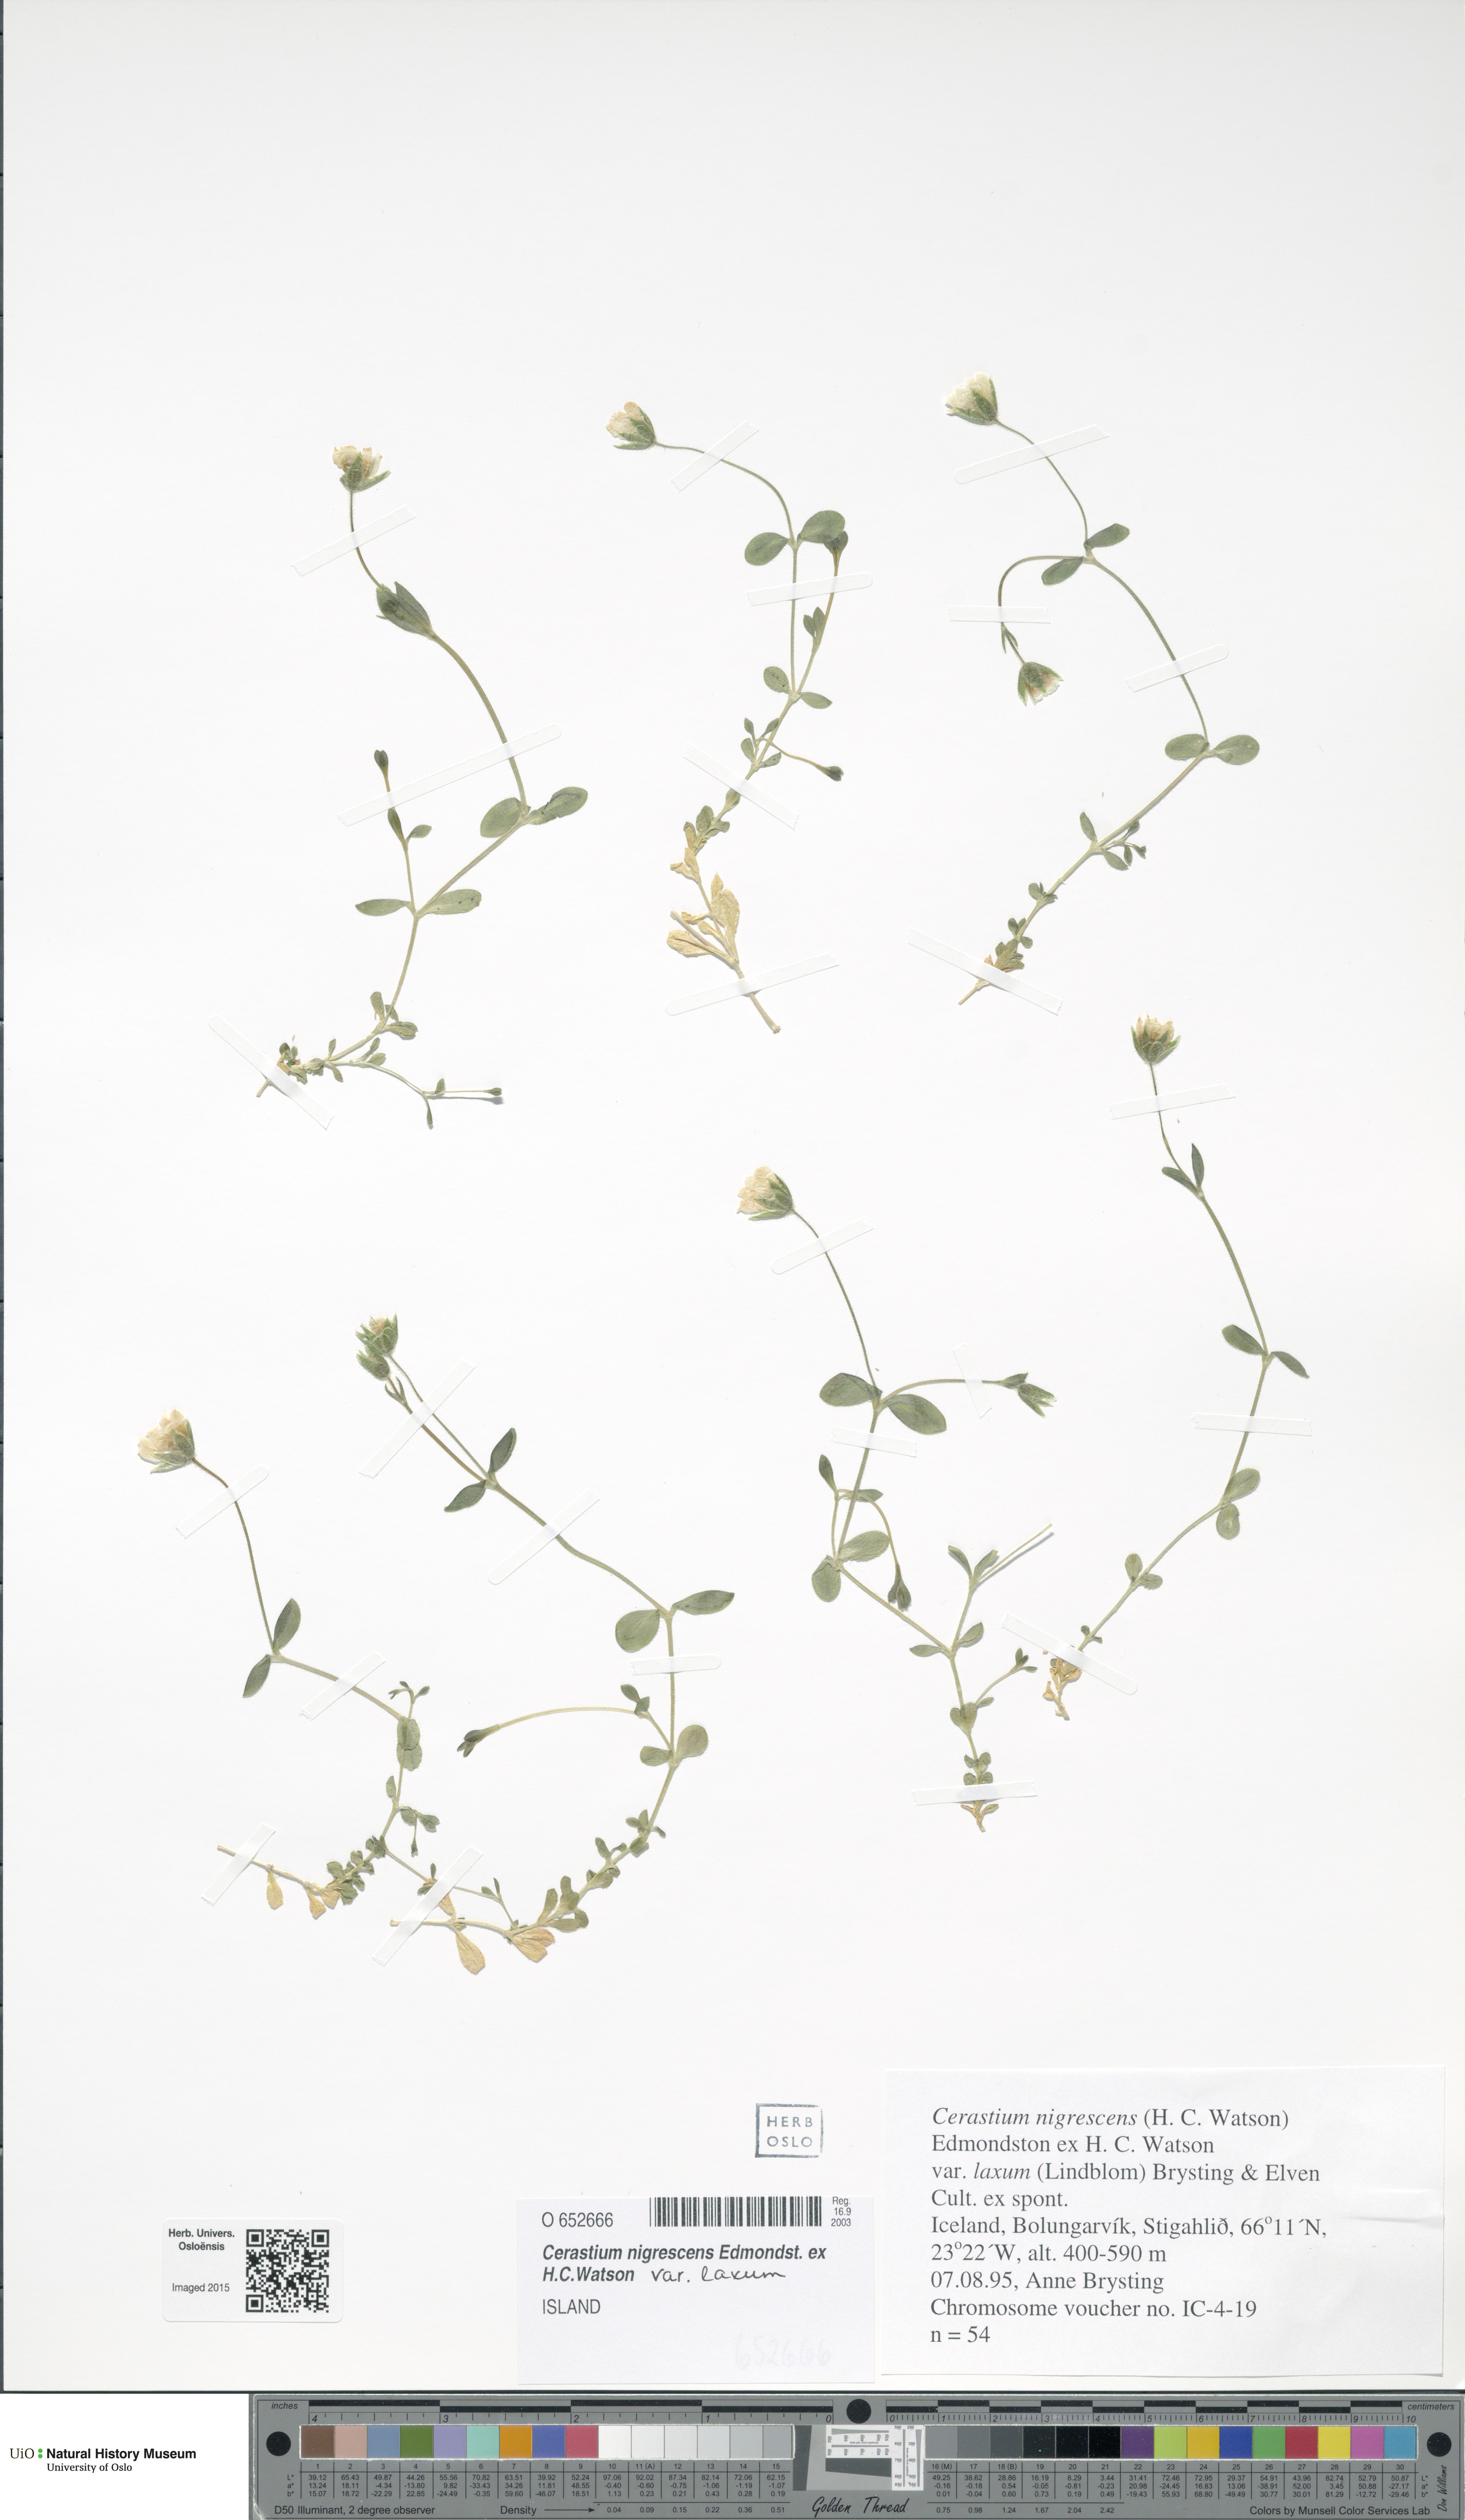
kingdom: Plantae
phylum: Tracheophyta
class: Magnoliopsida
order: Caryophyllales
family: Caryophyllaceae
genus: Cerastium
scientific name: Cerastium nigrescens
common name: Shetland mouse-ear
